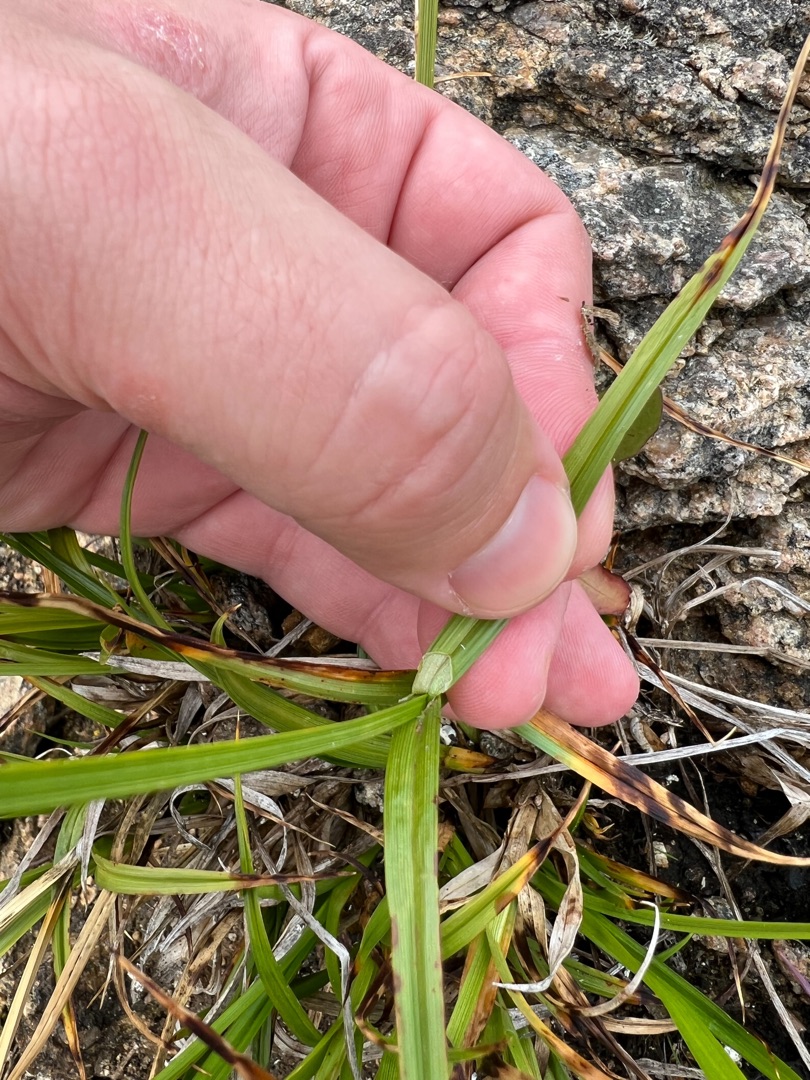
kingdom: Plantae
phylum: Tracheophyta
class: Liliopsida
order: Poales
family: Cyperaceae
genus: Carex
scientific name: Carex vulpina
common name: Ræve-star
